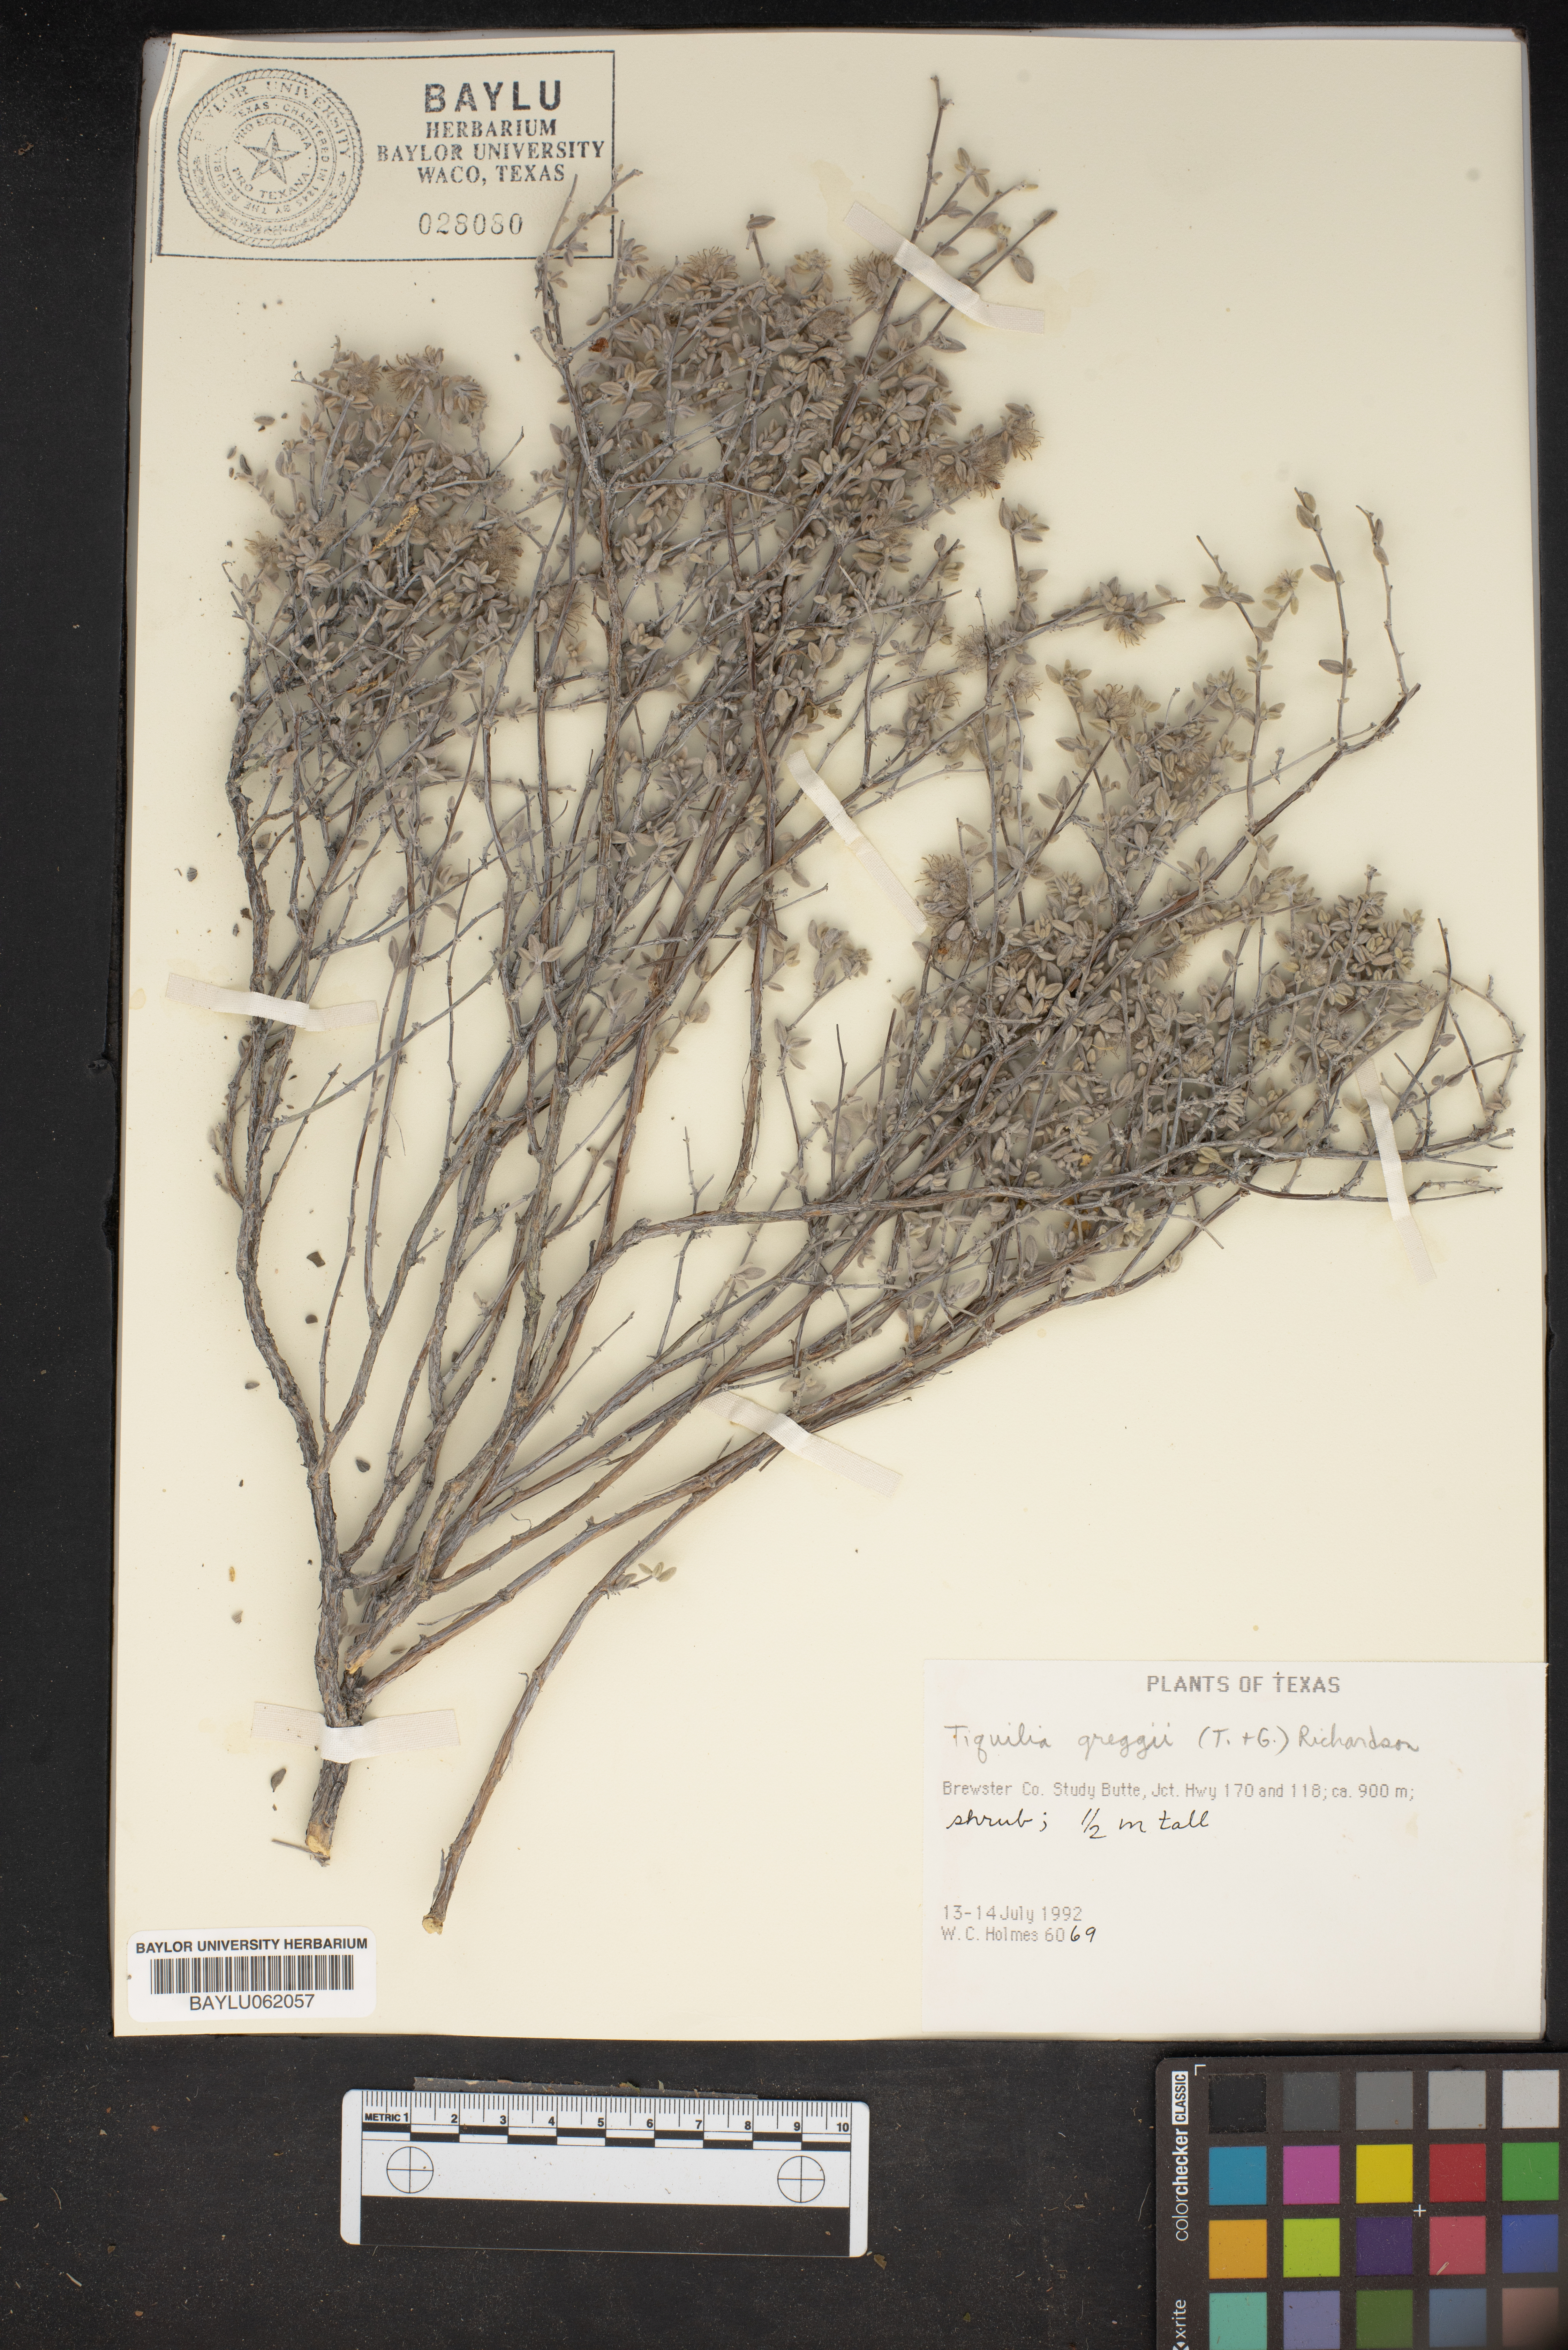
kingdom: Plantae
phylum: Tracheophyta
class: Magnoliopsida
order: Boraginales
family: Ehretiaceae
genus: Tiquilia
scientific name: Tiquilia greggii
